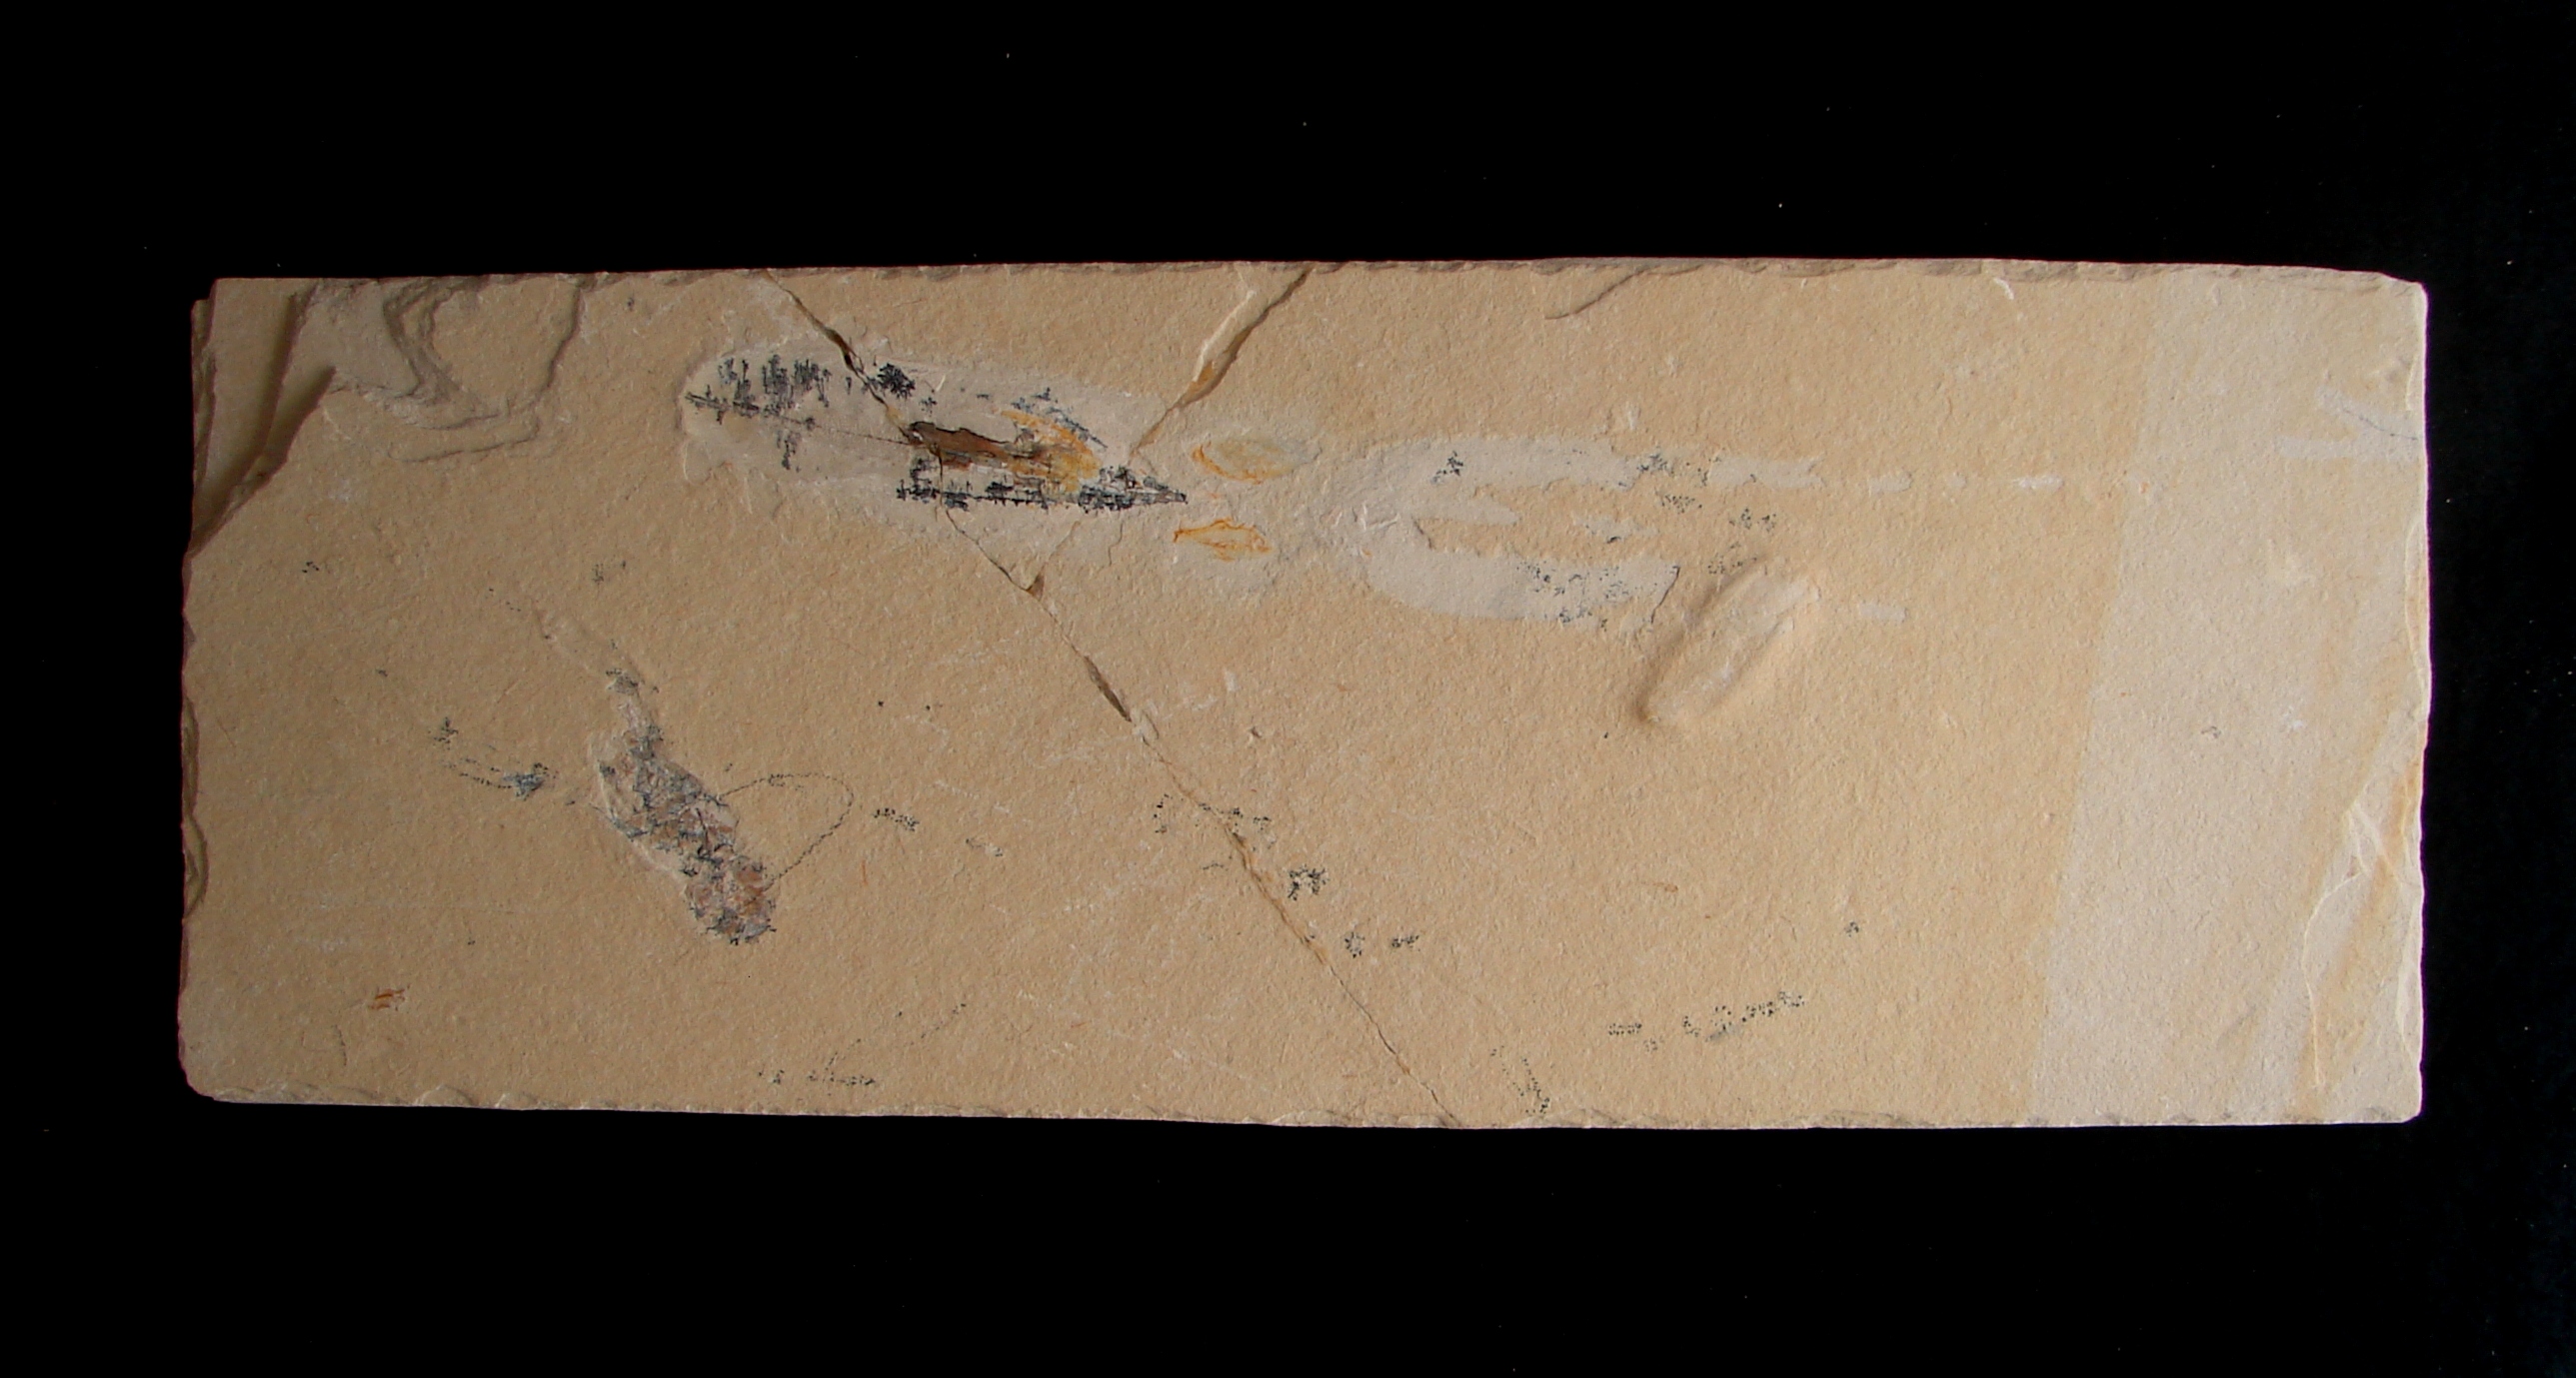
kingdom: Animalia
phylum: Mollusca
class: Cephalopoda
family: Trachyteuthididae
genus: Glyphiteuthis
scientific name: Glyphiteuthis abisaadiorum
